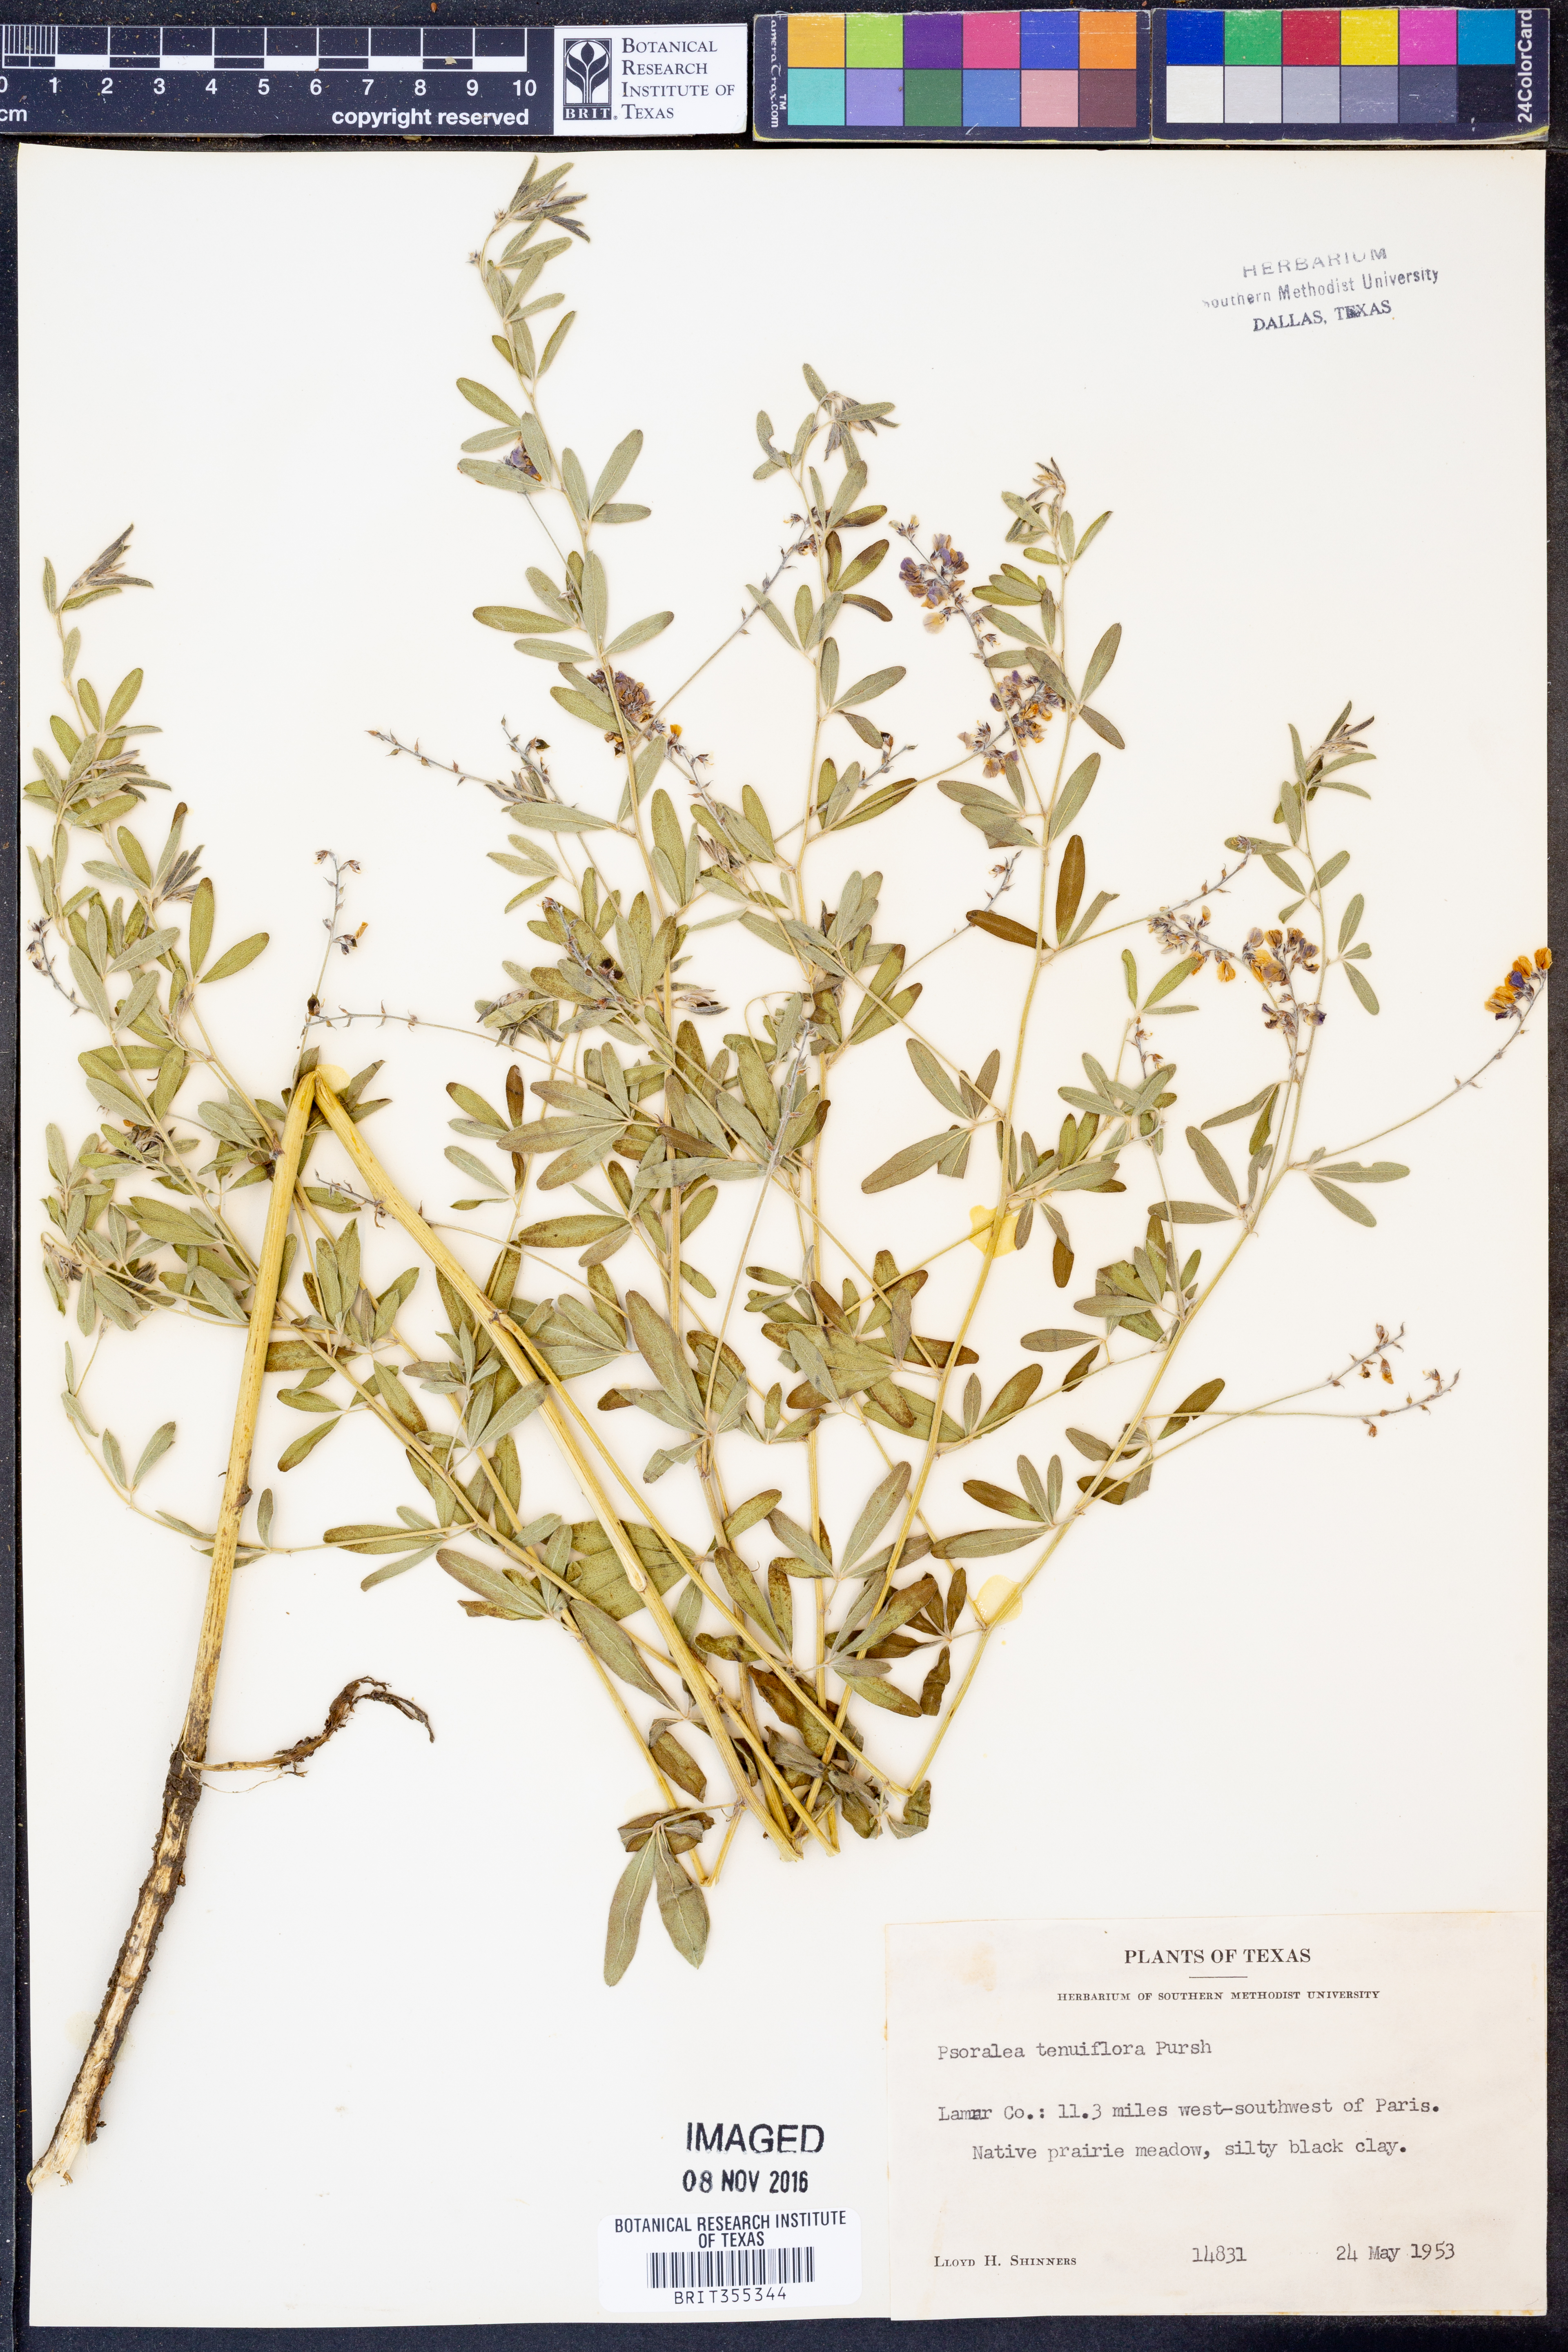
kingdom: Plantae
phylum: Tracheophyta
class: Magnoliopsida
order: Fabales
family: Fabaceae
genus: Pediomelum
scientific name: Pediomelum tenuiflorum
